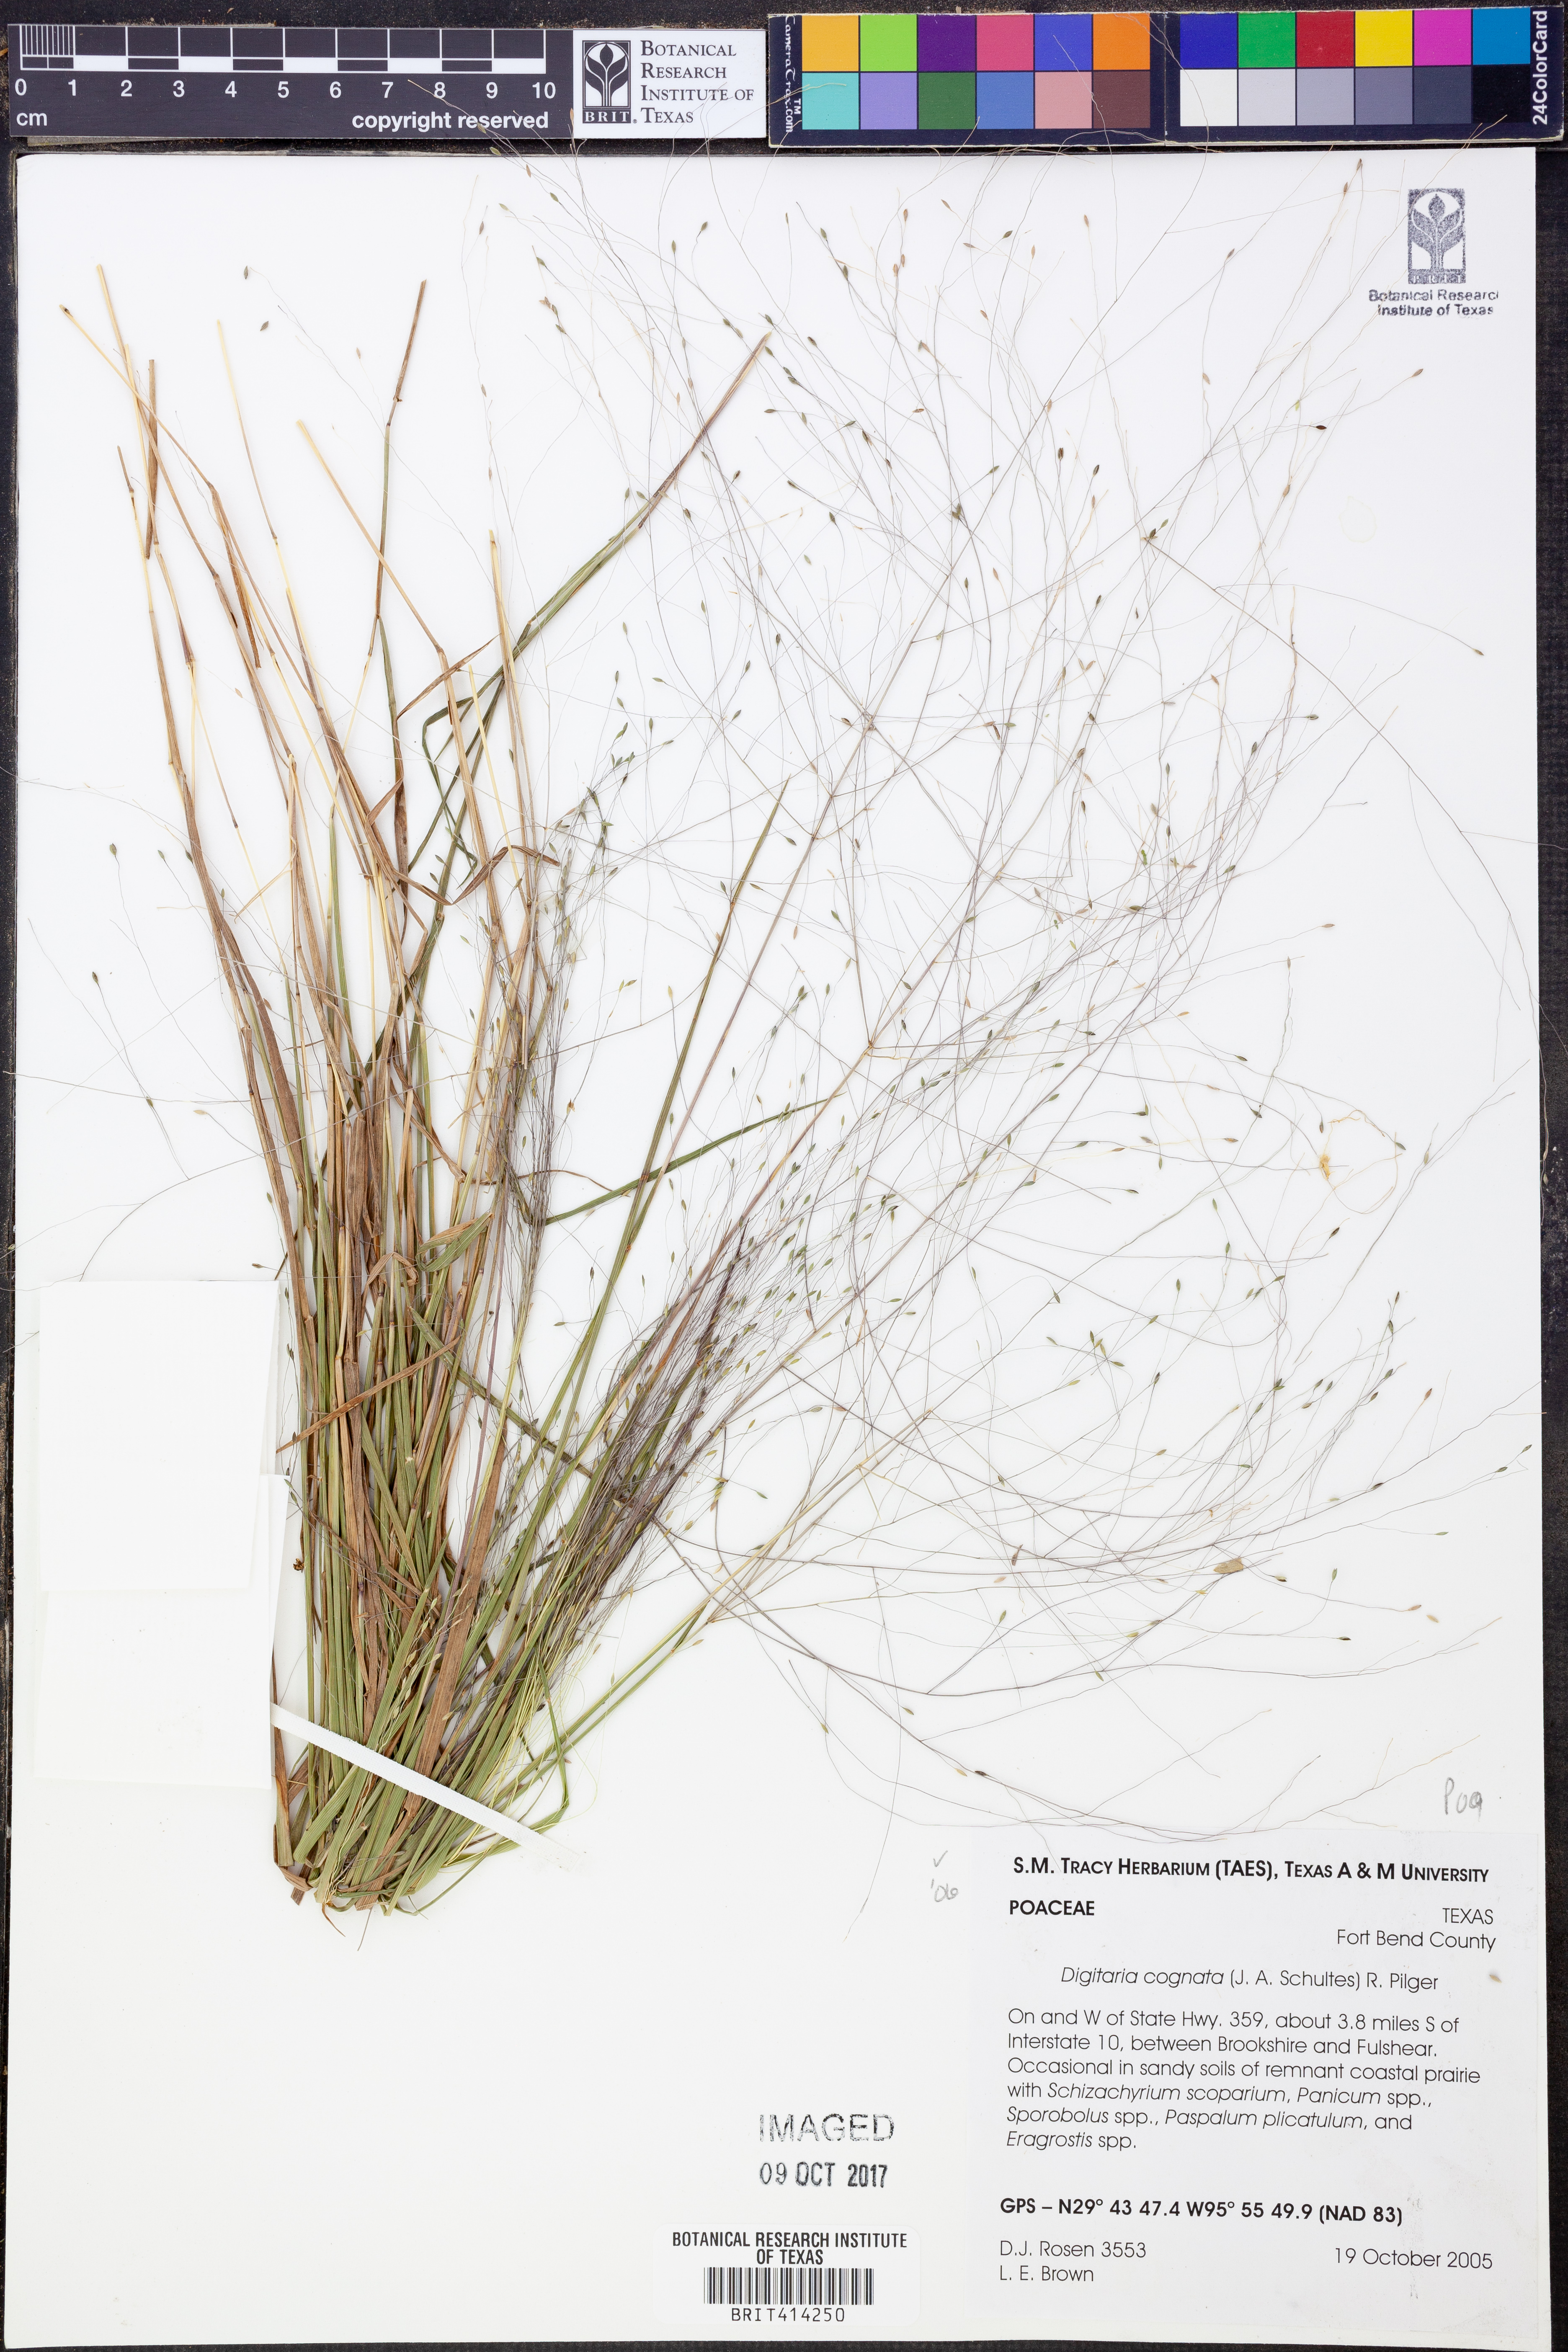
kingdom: Plantae
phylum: Tracheophyta
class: Liliopsida
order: Poales
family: Poaceae
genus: Digitaria
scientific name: Digitaria cognata
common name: Fall witchgrass
